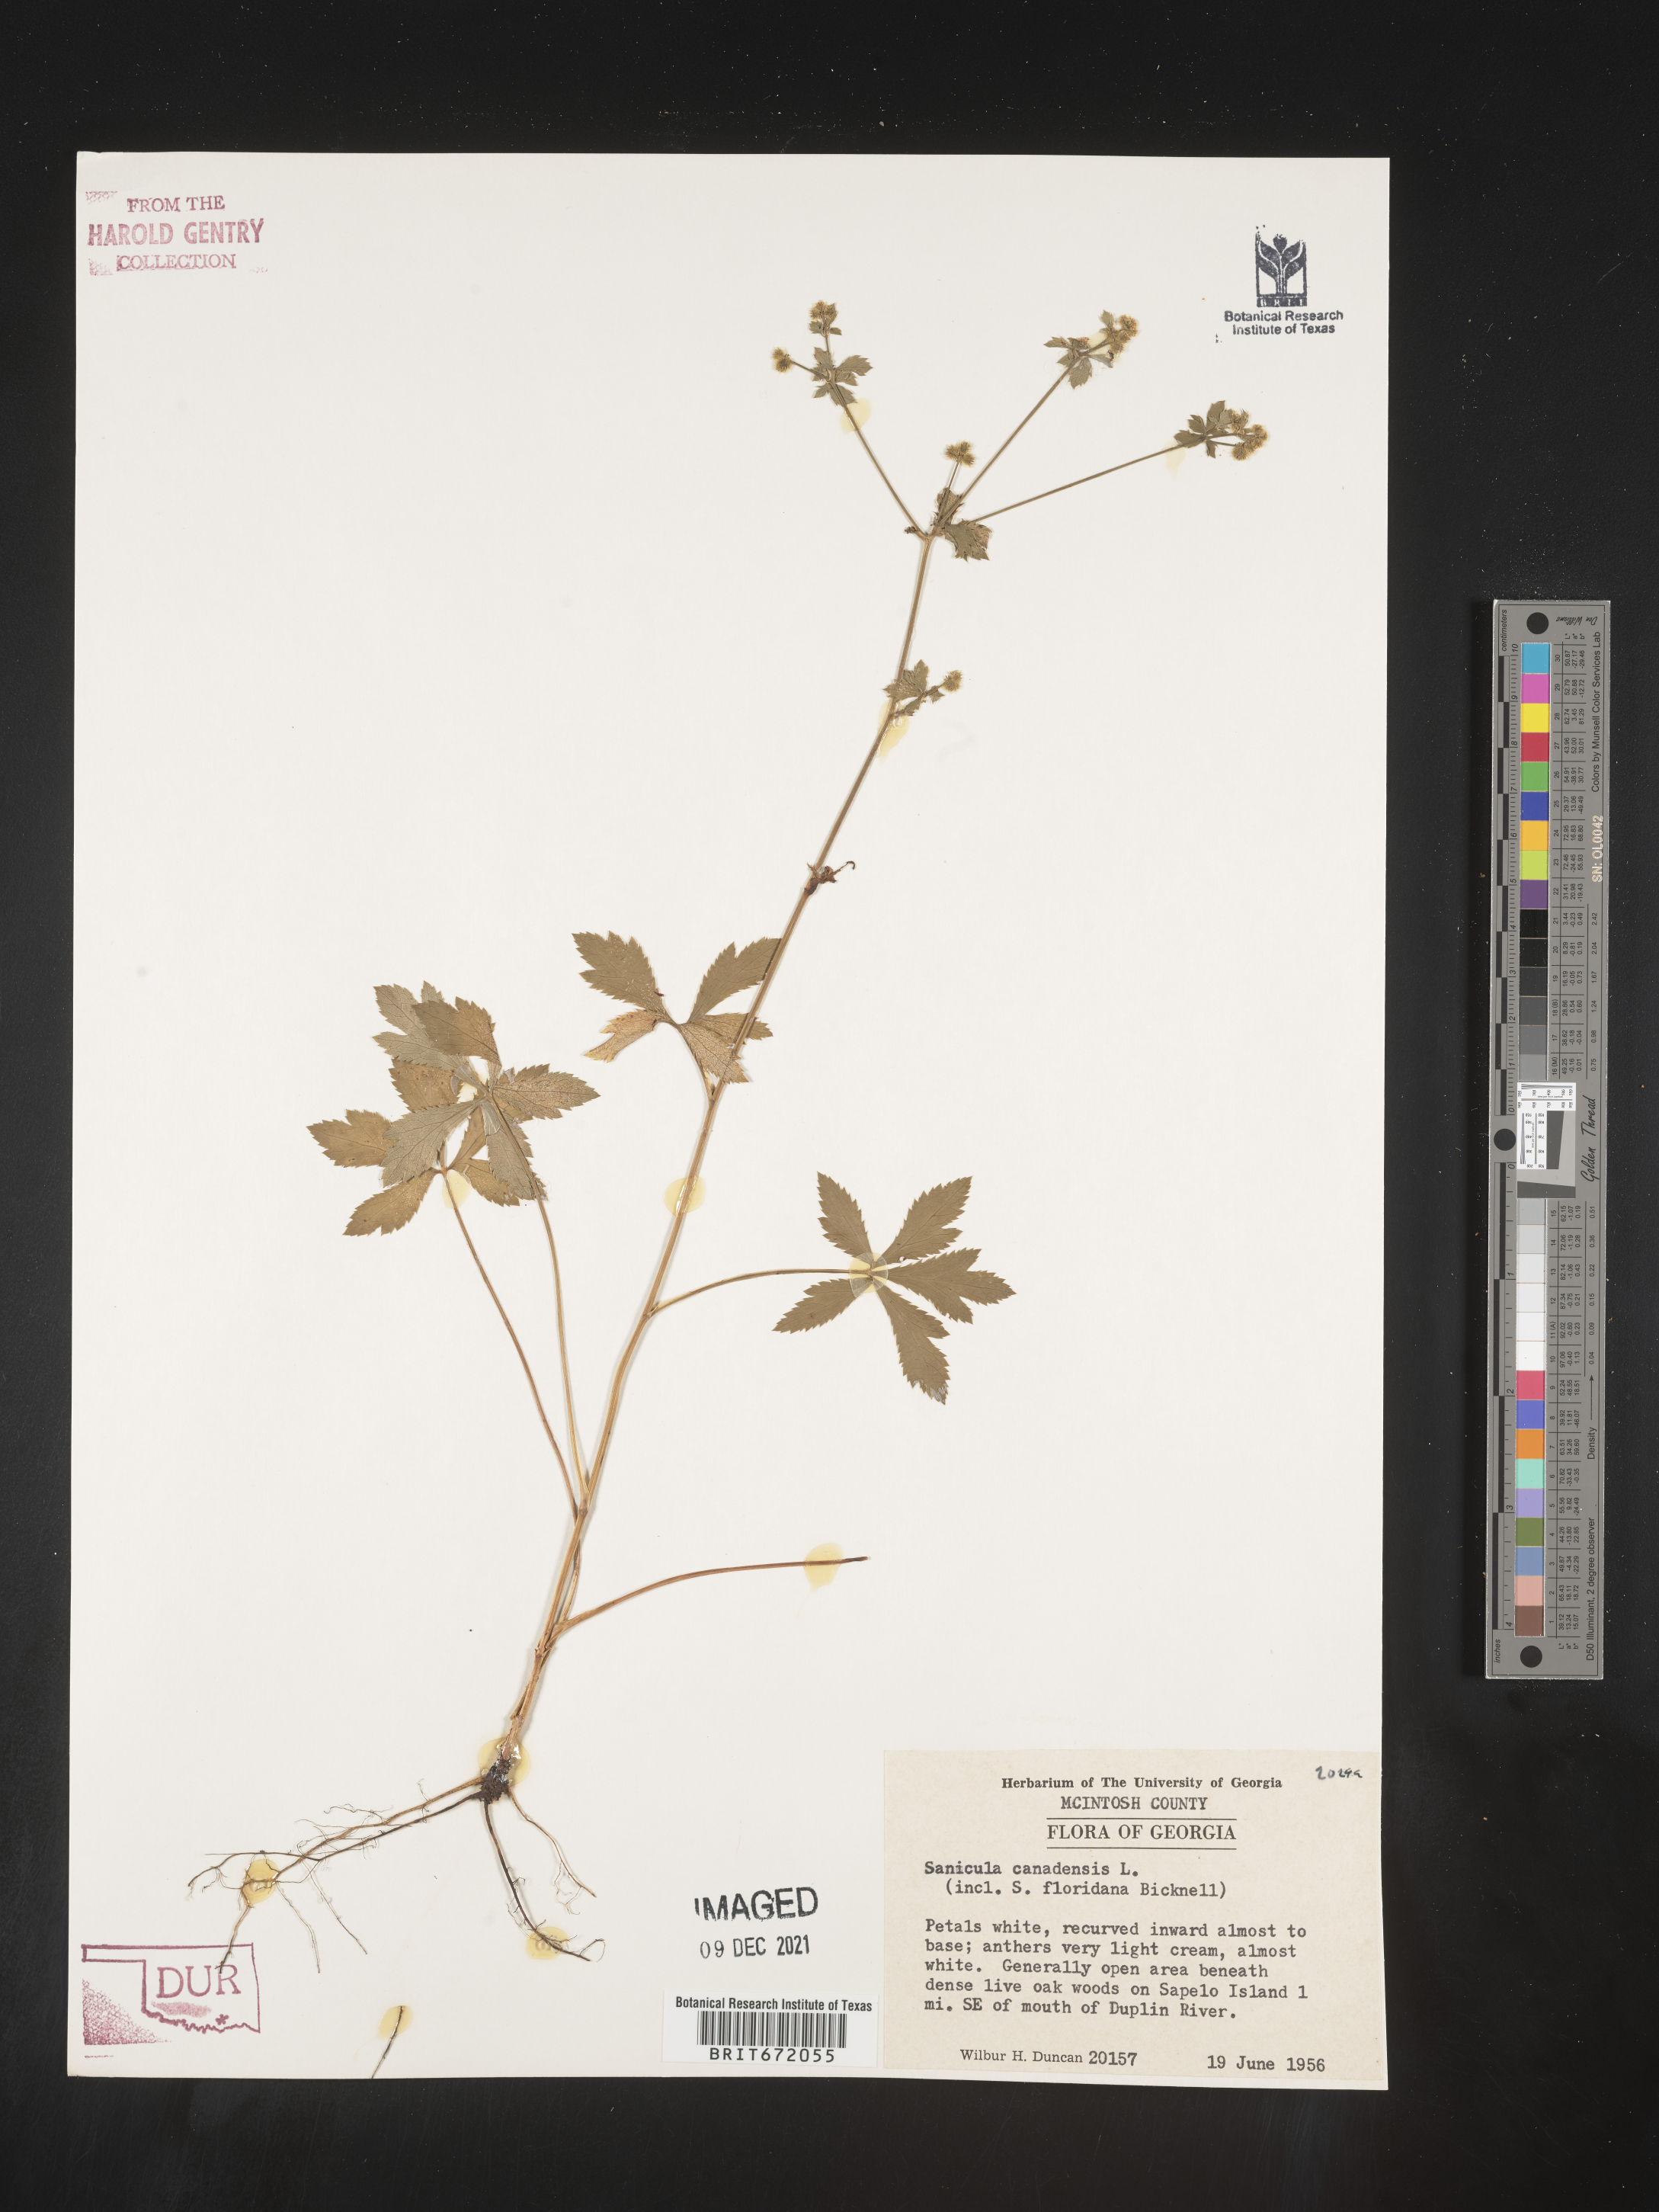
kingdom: Plantae
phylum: Tracheophyta
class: Magnoliopsida
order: Apiales
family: Apiaceae
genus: Sanicula
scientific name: Sanicula canadensis
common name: Canada sanicle
